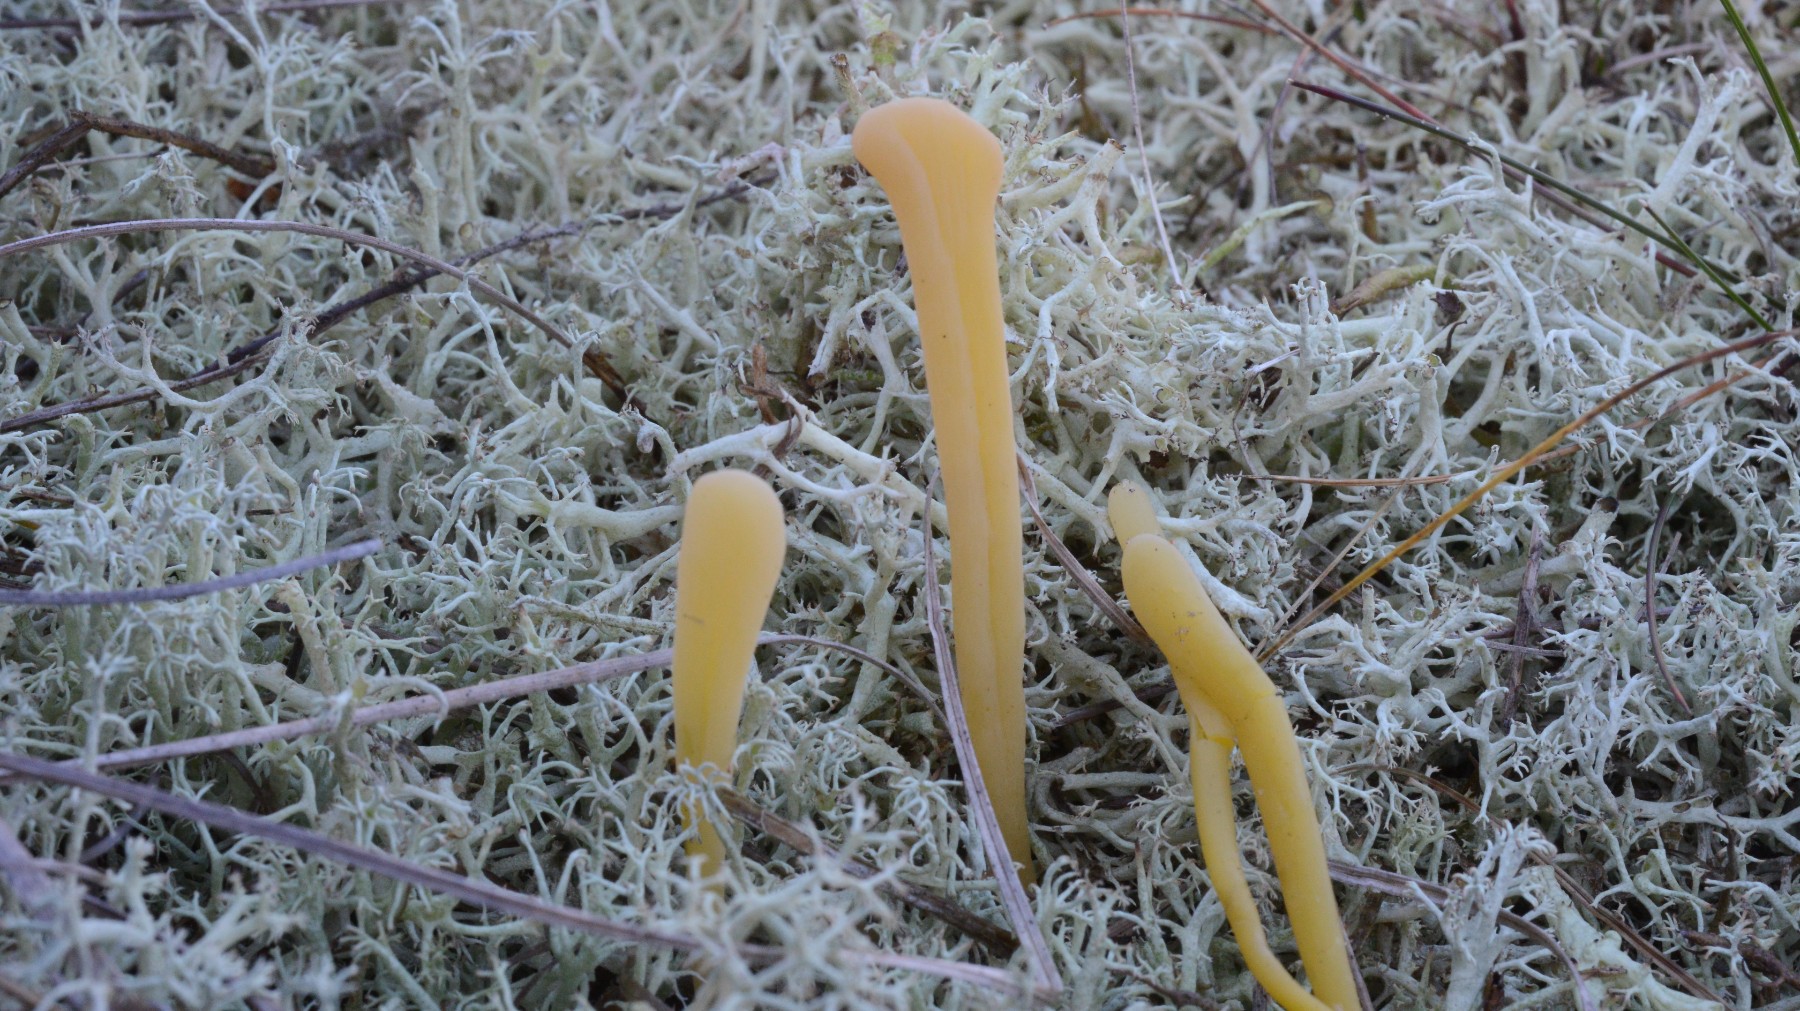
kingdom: Fungi
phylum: Basidiomycota
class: Agaricomycetes
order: Agaricales
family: Clavariaceae
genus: Clavaria
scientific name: Clavaria argillacea
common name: lerfarvet køllesvamp
